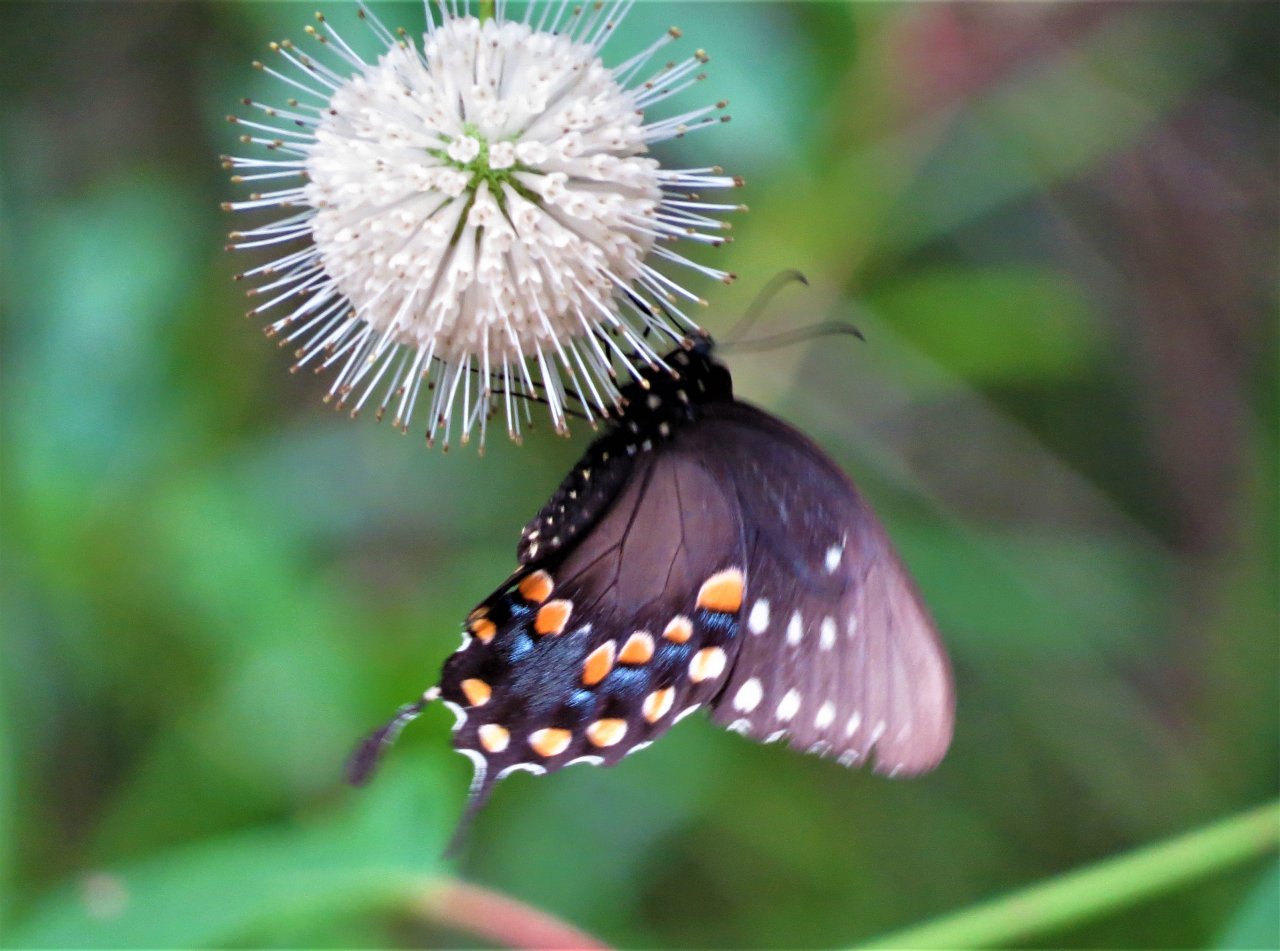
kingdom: Animalia
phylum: Arthropoda
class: Insecta
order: Lepidoptera
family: Papilionidae
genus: Pterourus
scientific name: Pterourus troilus
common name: Spicebush Swallowtail
